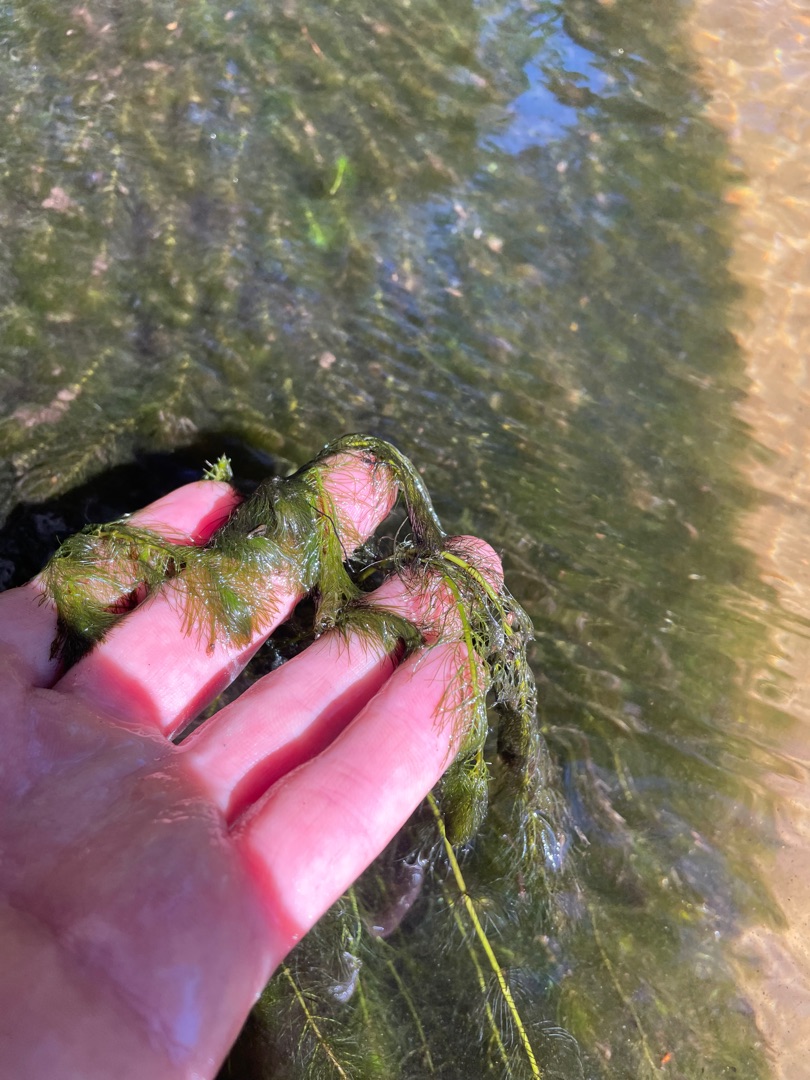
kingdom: Plantae
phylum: Tracheophyta
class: Magnoliopsida
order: Saxifragales
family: Haloragaceae
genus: Myriophyllum
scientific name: Myriophyllum alterniflorum
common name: Hår-tusindblad
